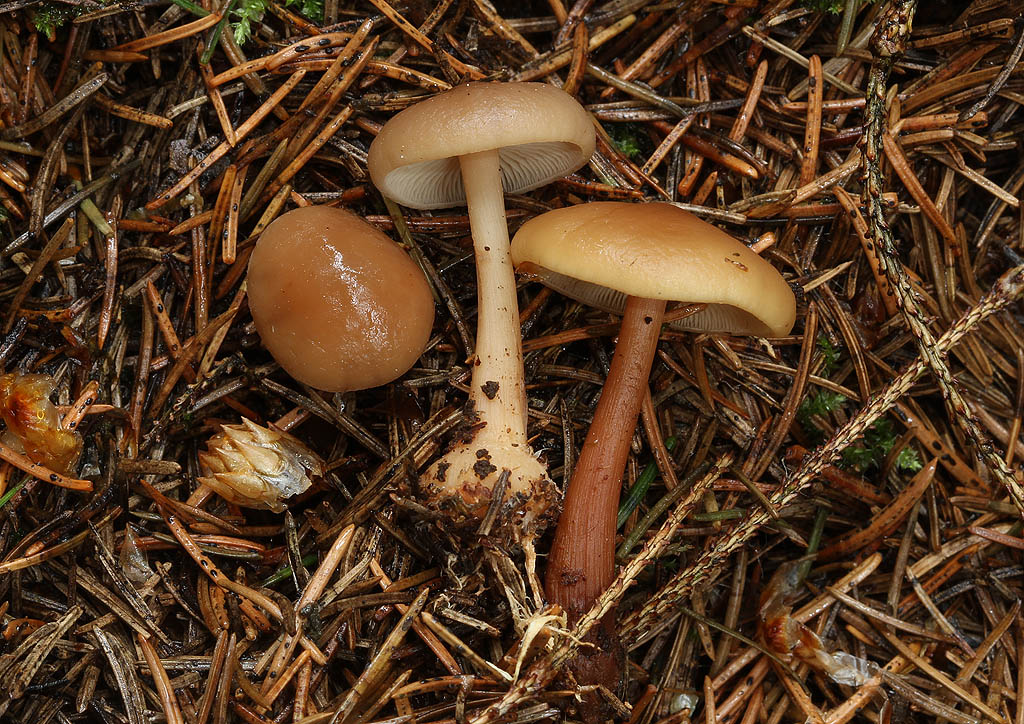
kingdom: Fungi
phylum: Basidiomycota
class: Agaricomycetes
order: Agaricales
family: Omphalotaceae
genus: Gymnopus
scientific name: Gymnopus aquosus
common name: bleg fladhat
